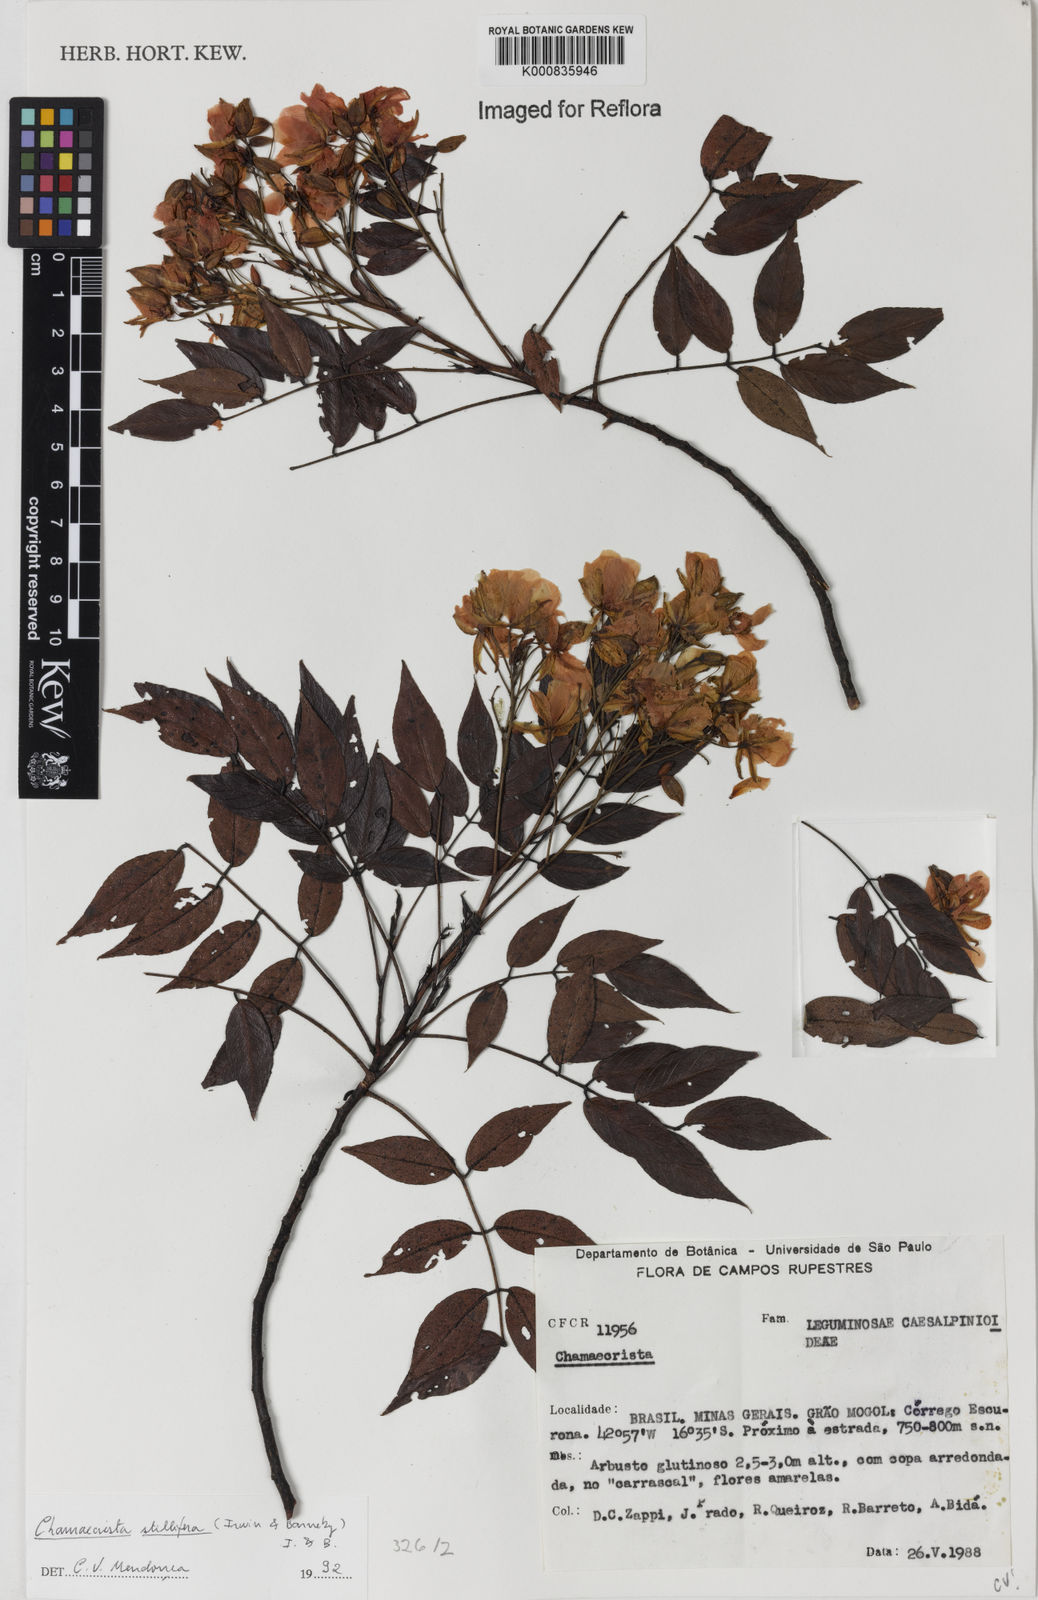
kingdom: Plantae
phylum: Tracheophyta
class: Magnoliopsida
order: Fabales
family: Fabaceae
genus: Chamaecrista
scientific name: Chamaecrista stillifera
